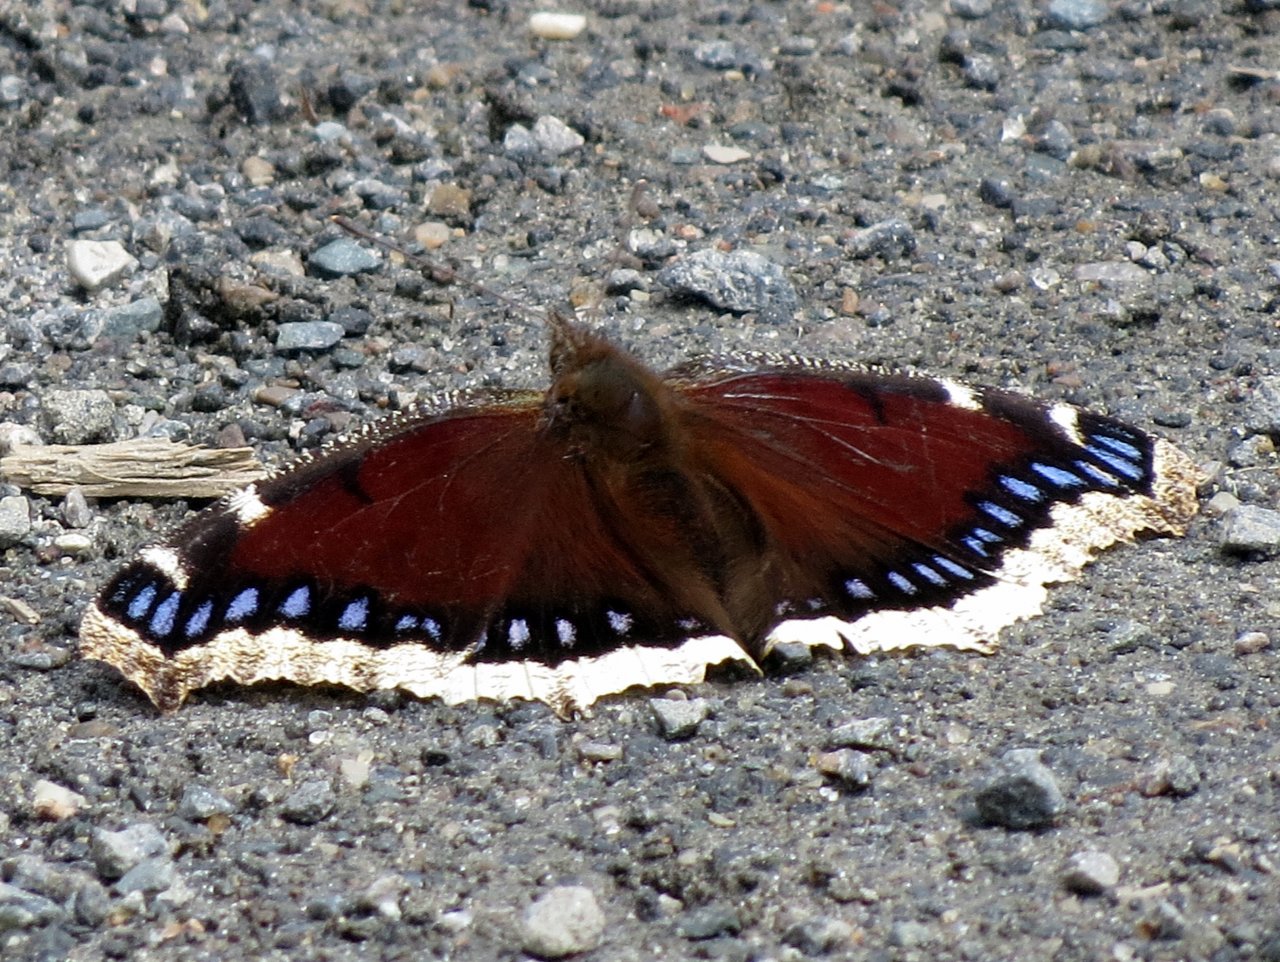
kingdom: Animalia
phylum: Arthropoda
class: Insecta
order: Lepidoptera
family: Nymphalidae
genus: Nymphalis
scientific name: Nymphalis antiopa
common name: Mourning Cloak
